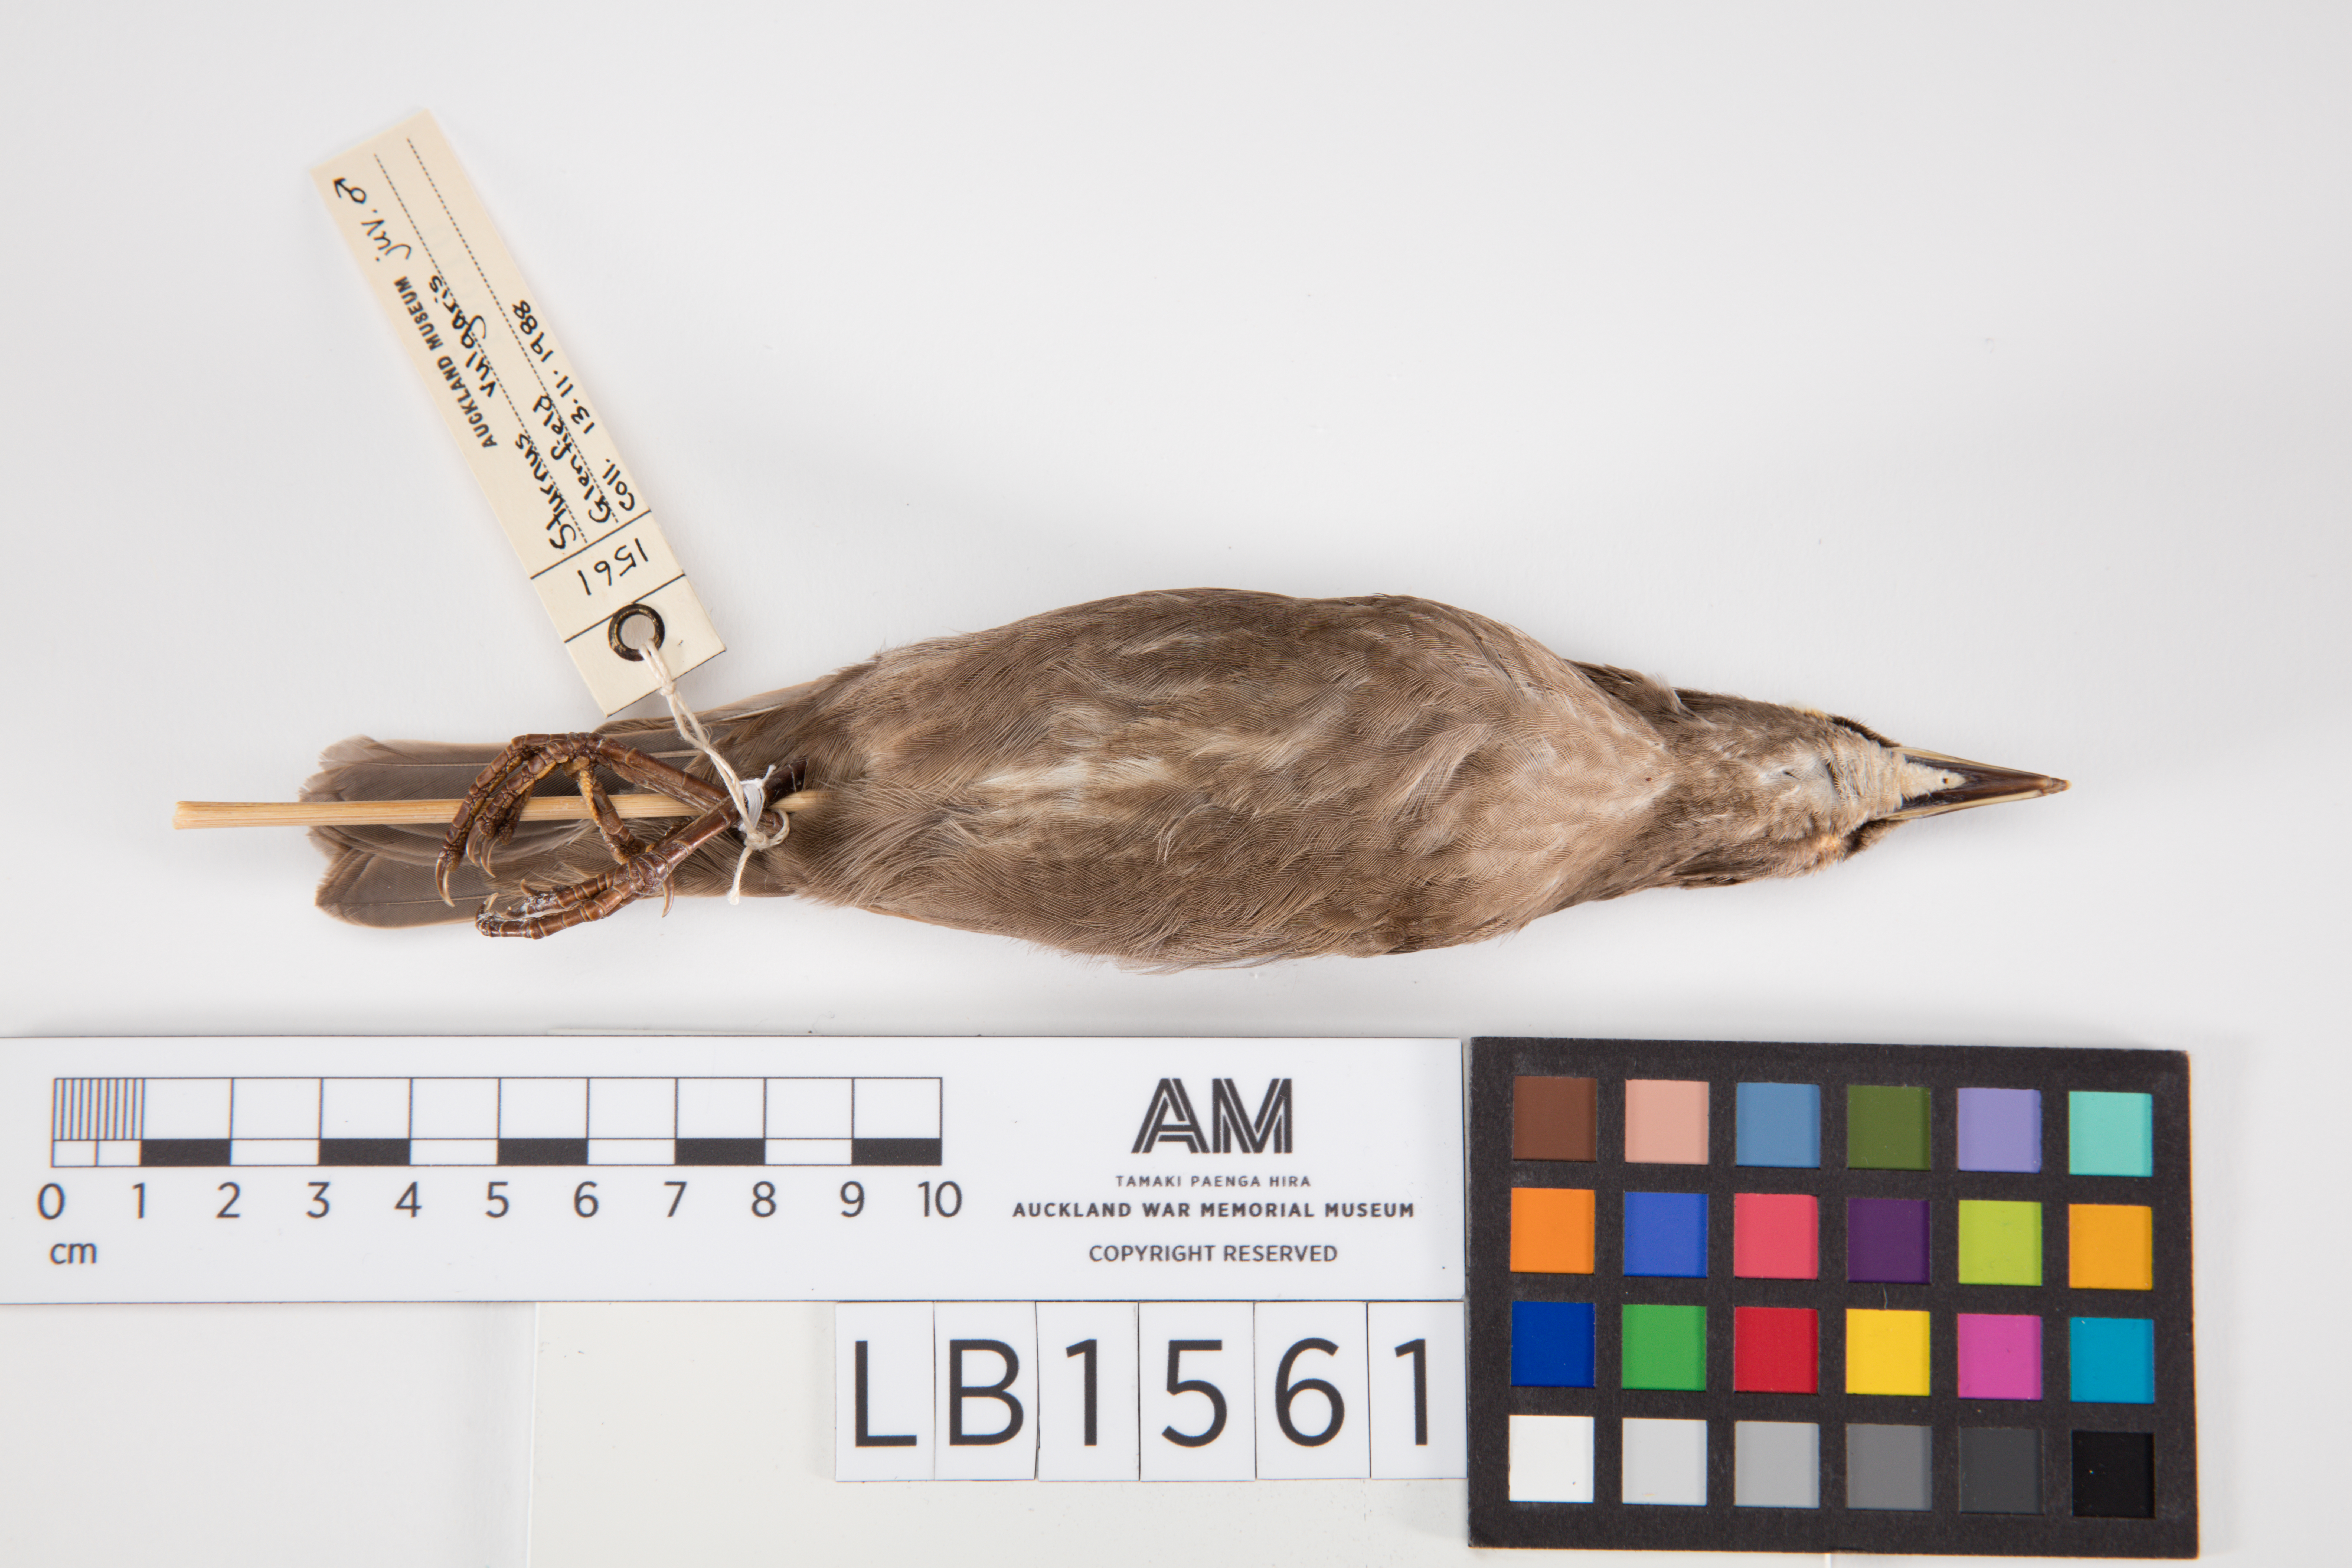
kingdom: Animalia
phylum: Chordata
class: Aves
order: Passeriformes
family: Sturnidae
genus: Sturnus
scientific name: Sturnus vulgaris
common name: Common starling
